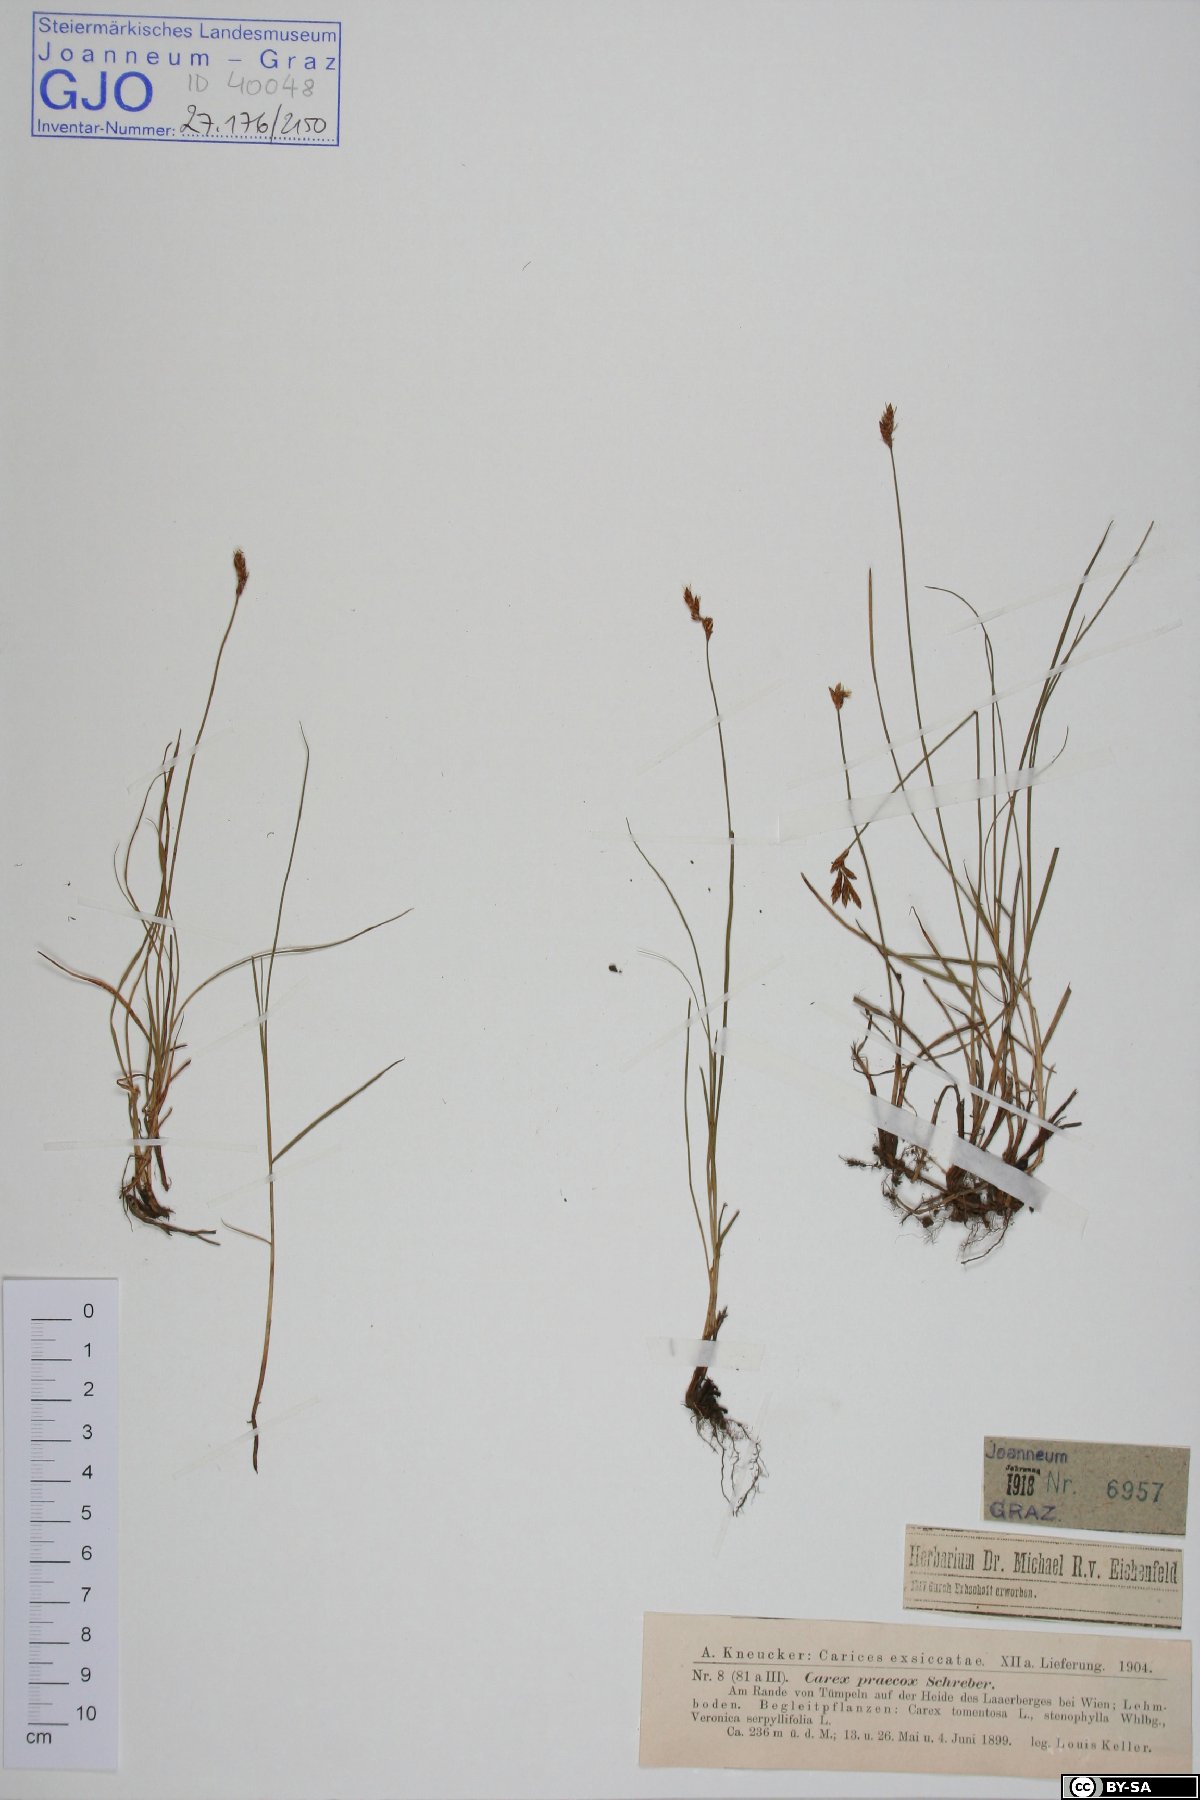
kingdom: Plantae
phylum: Tracheophyta
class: Liliopsida
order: Poales
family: Cyperaceae
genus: Carex
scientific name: Carex praecox
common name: Early sedge
